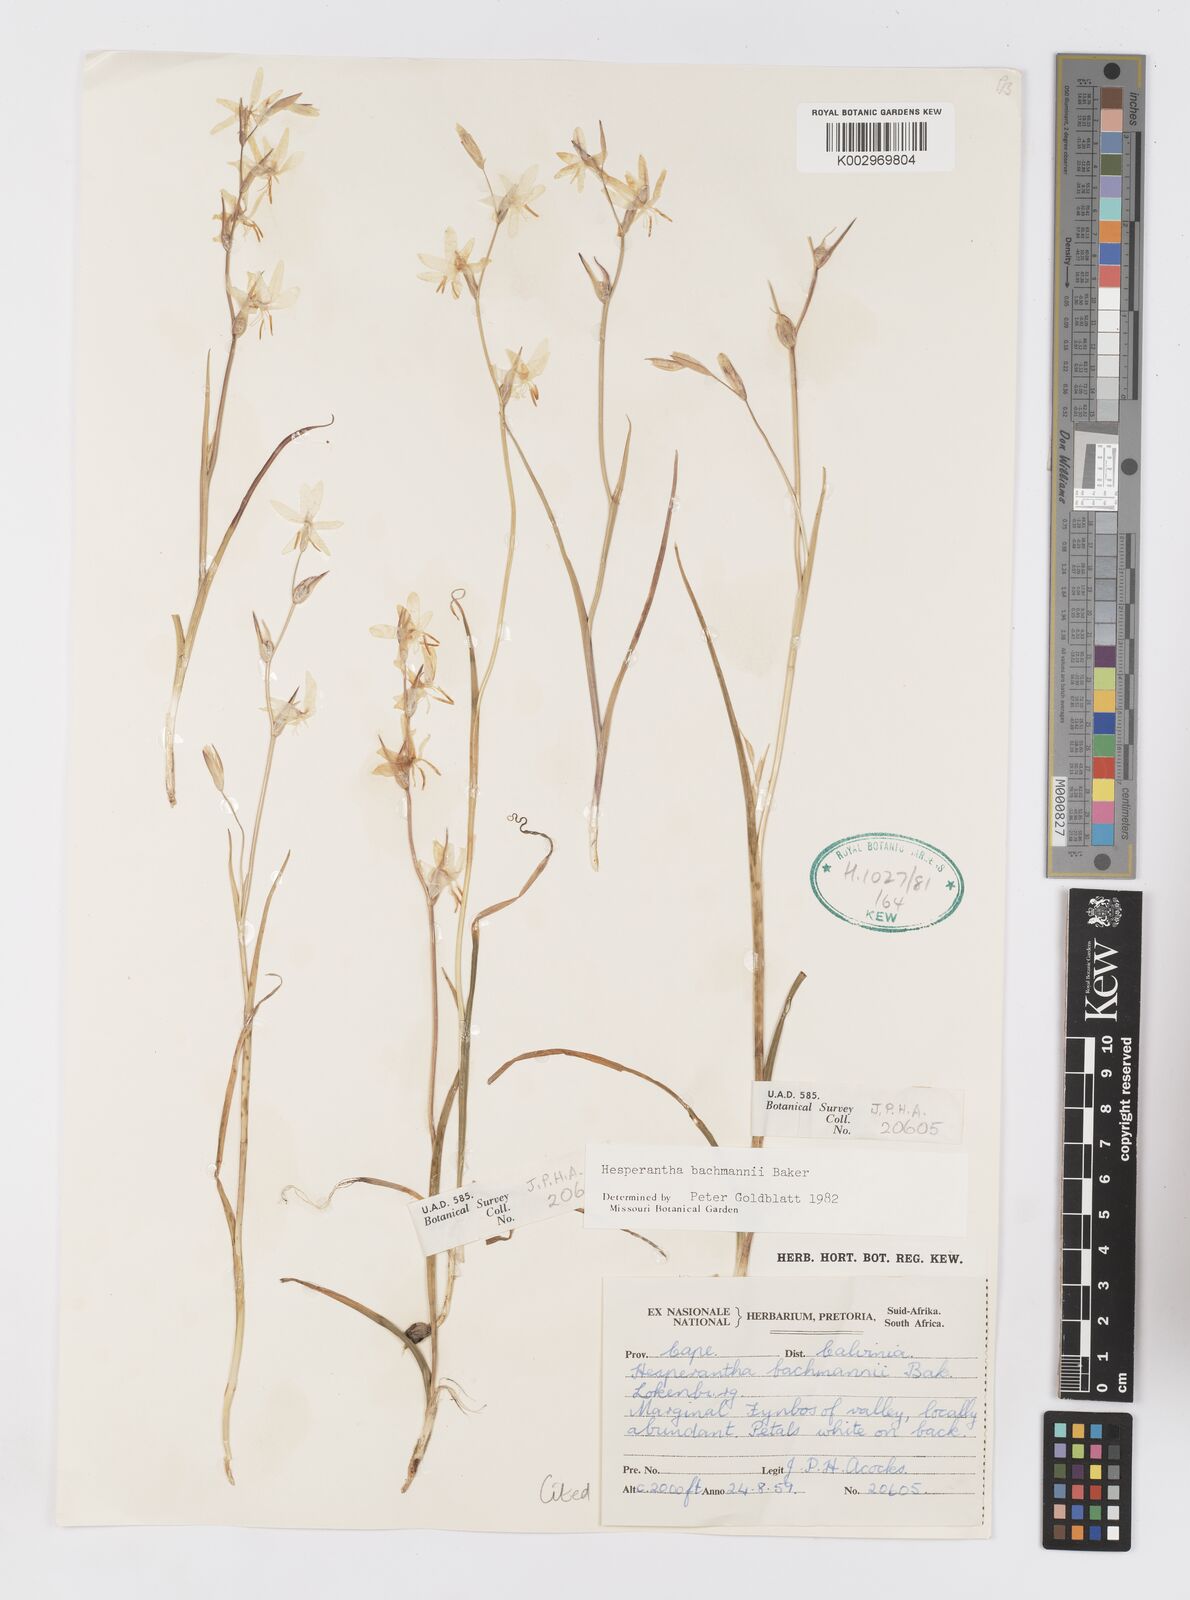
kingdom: Plantae
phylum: Tracheophyta
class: Liliopsida
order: Asparagales
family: Iridaceae
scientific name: Iridaceae
